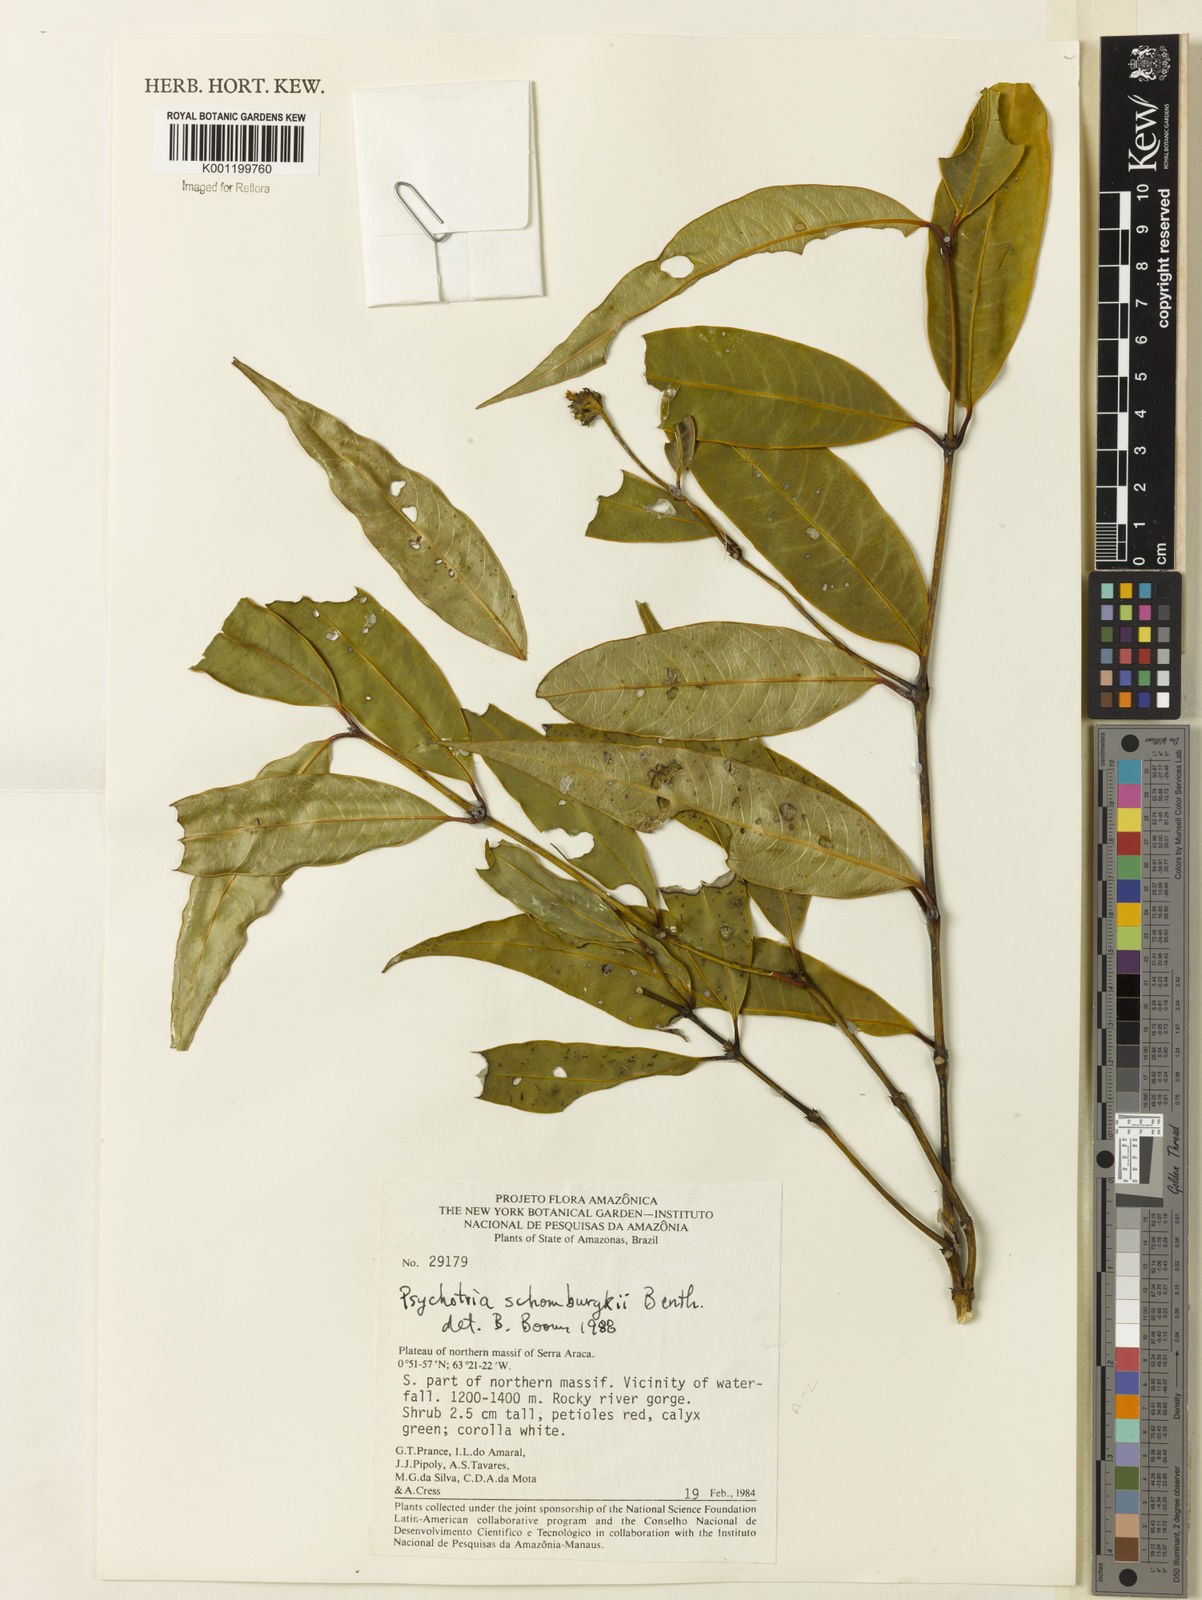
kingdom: Plantae
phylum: Tracheophyta
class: Magnoliopsida
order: Gentianales
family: Rubiaceae
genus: Palicourea
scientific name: Palicourea schomburgkii
